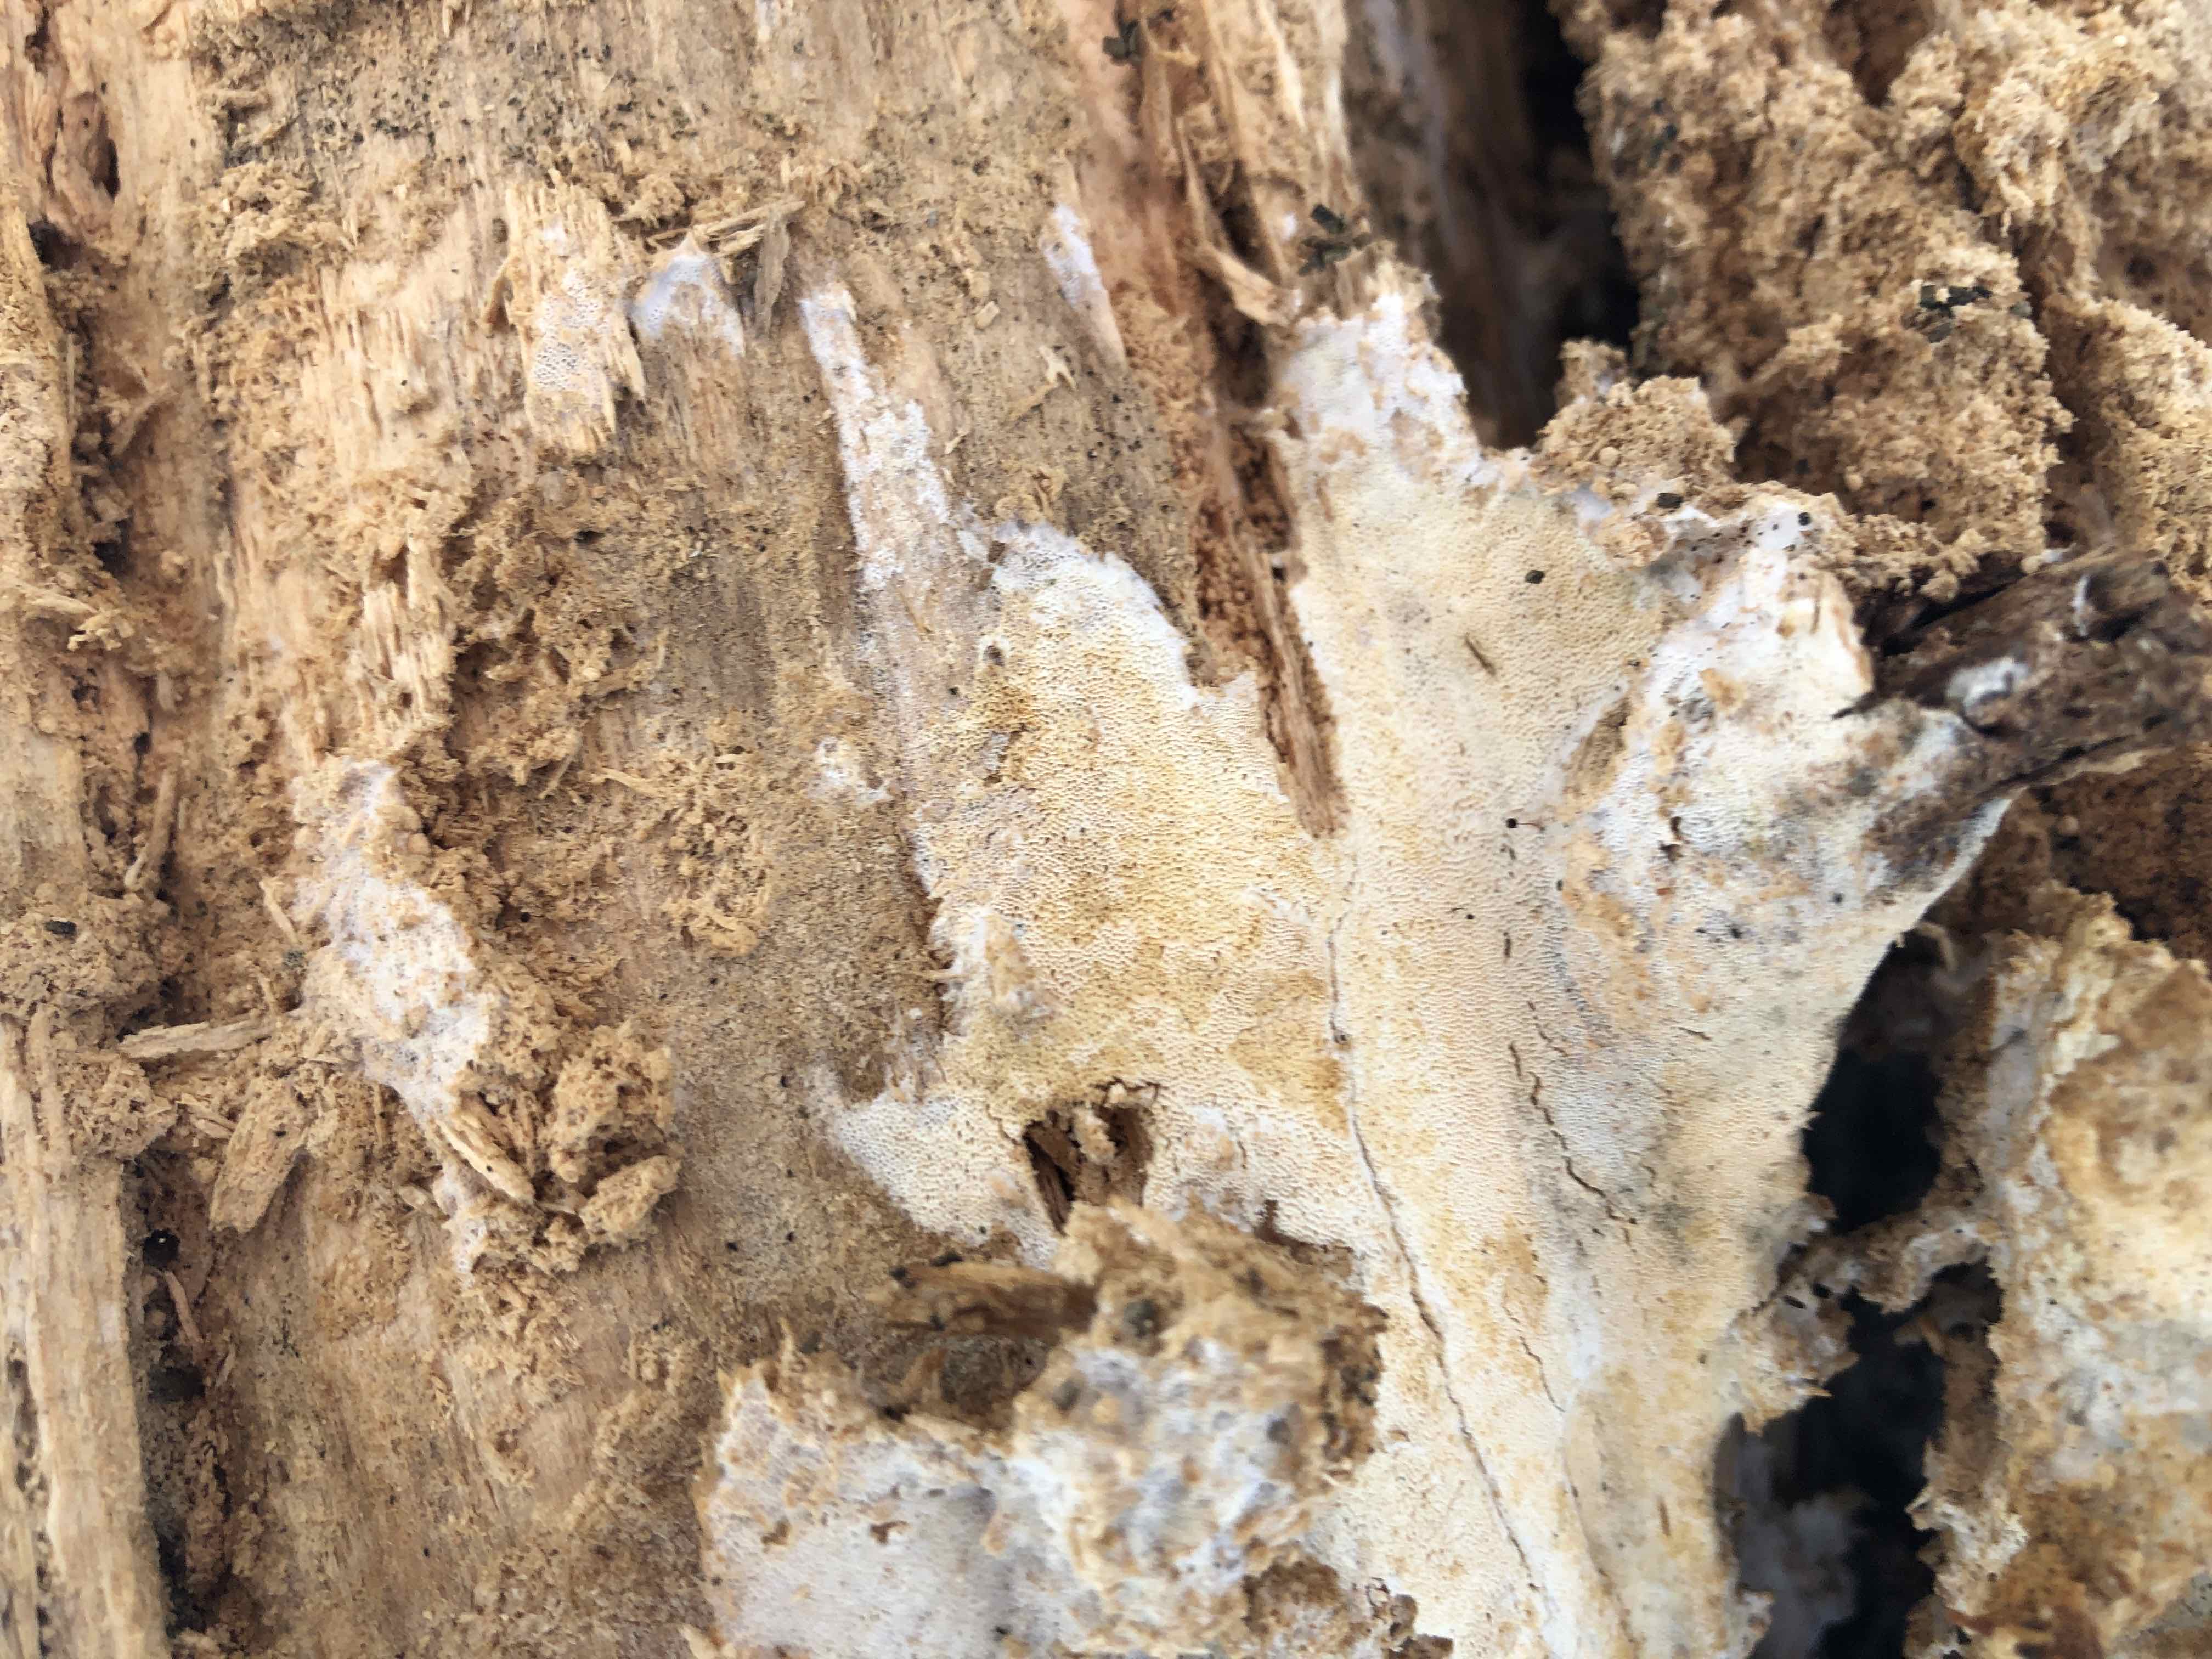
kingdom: Fungi
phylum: Basidiomycota
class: Agaricomycetes
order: Hymenochaetales
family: Rickenellaceae
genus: Sidera
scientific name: Sidera vulgaris
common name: fin flødeporesvamp
